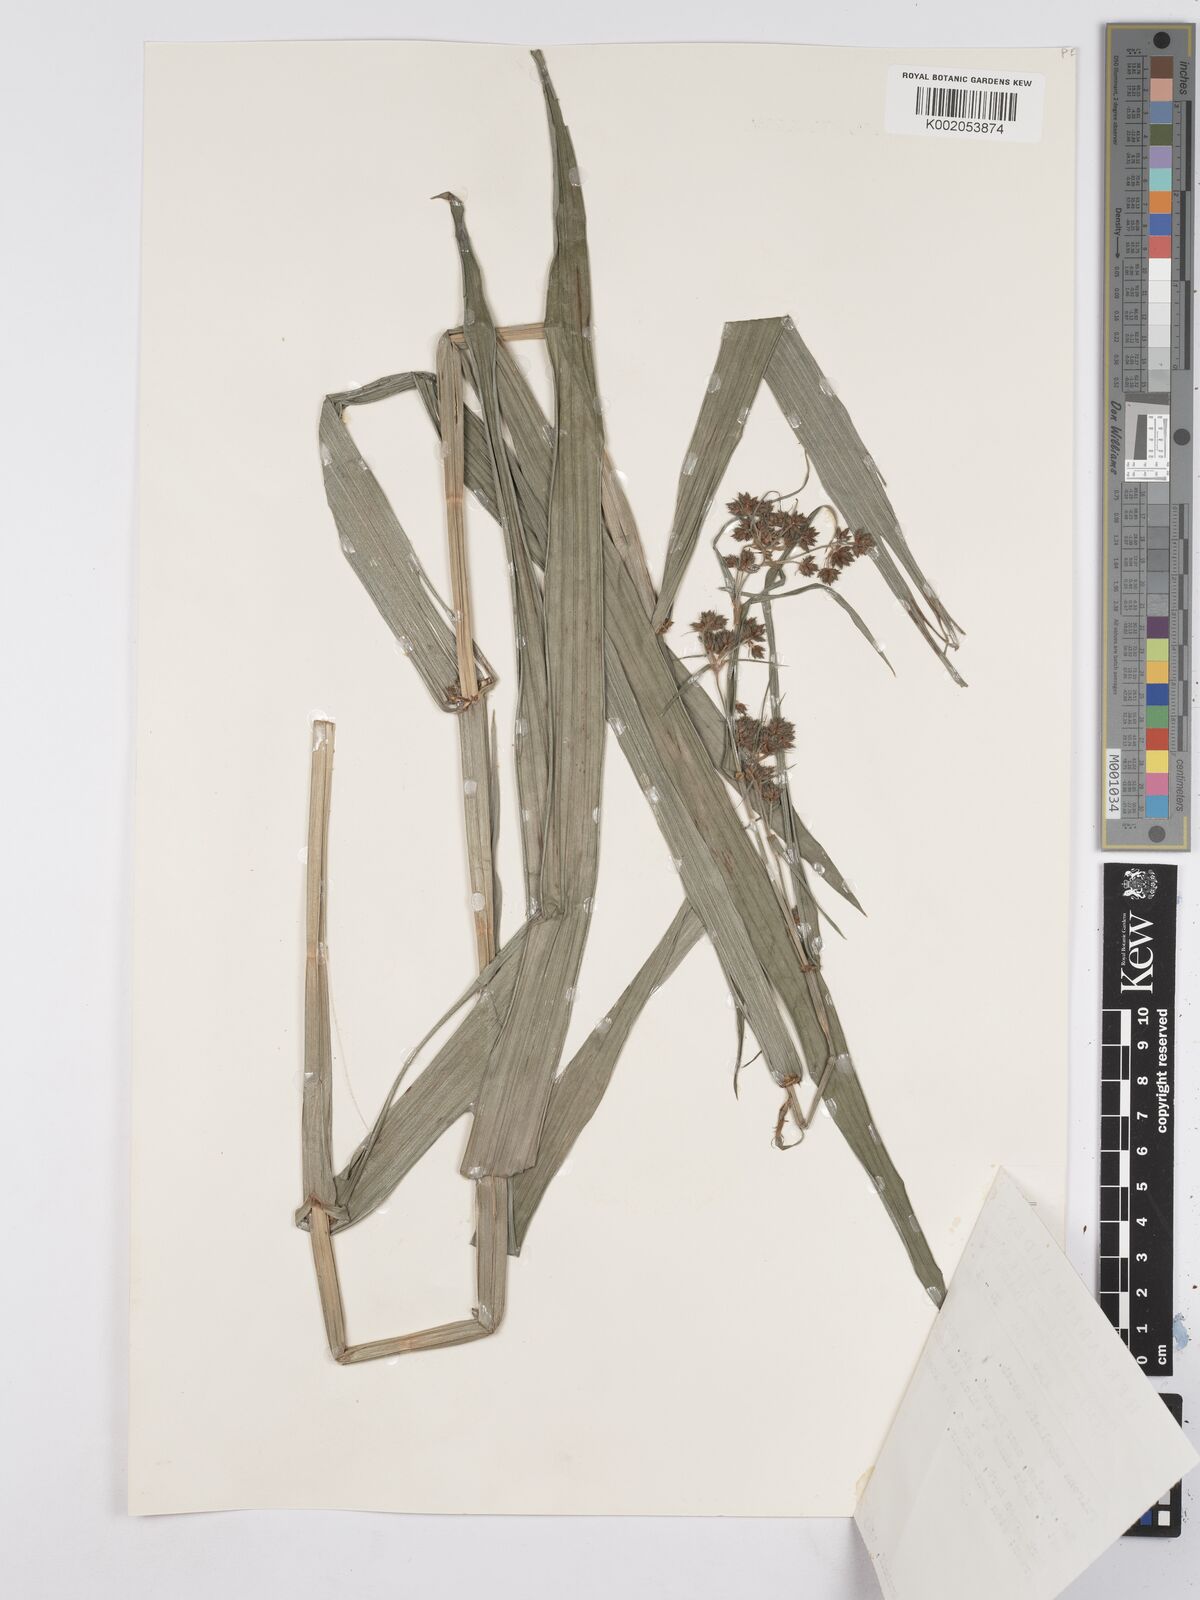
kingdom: Plantae
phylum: Tracheophyta
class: Liliopsida
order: Poales
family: Cyperaceae
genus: Fuirena
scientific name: Fuirena umbellata
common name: Yefen
